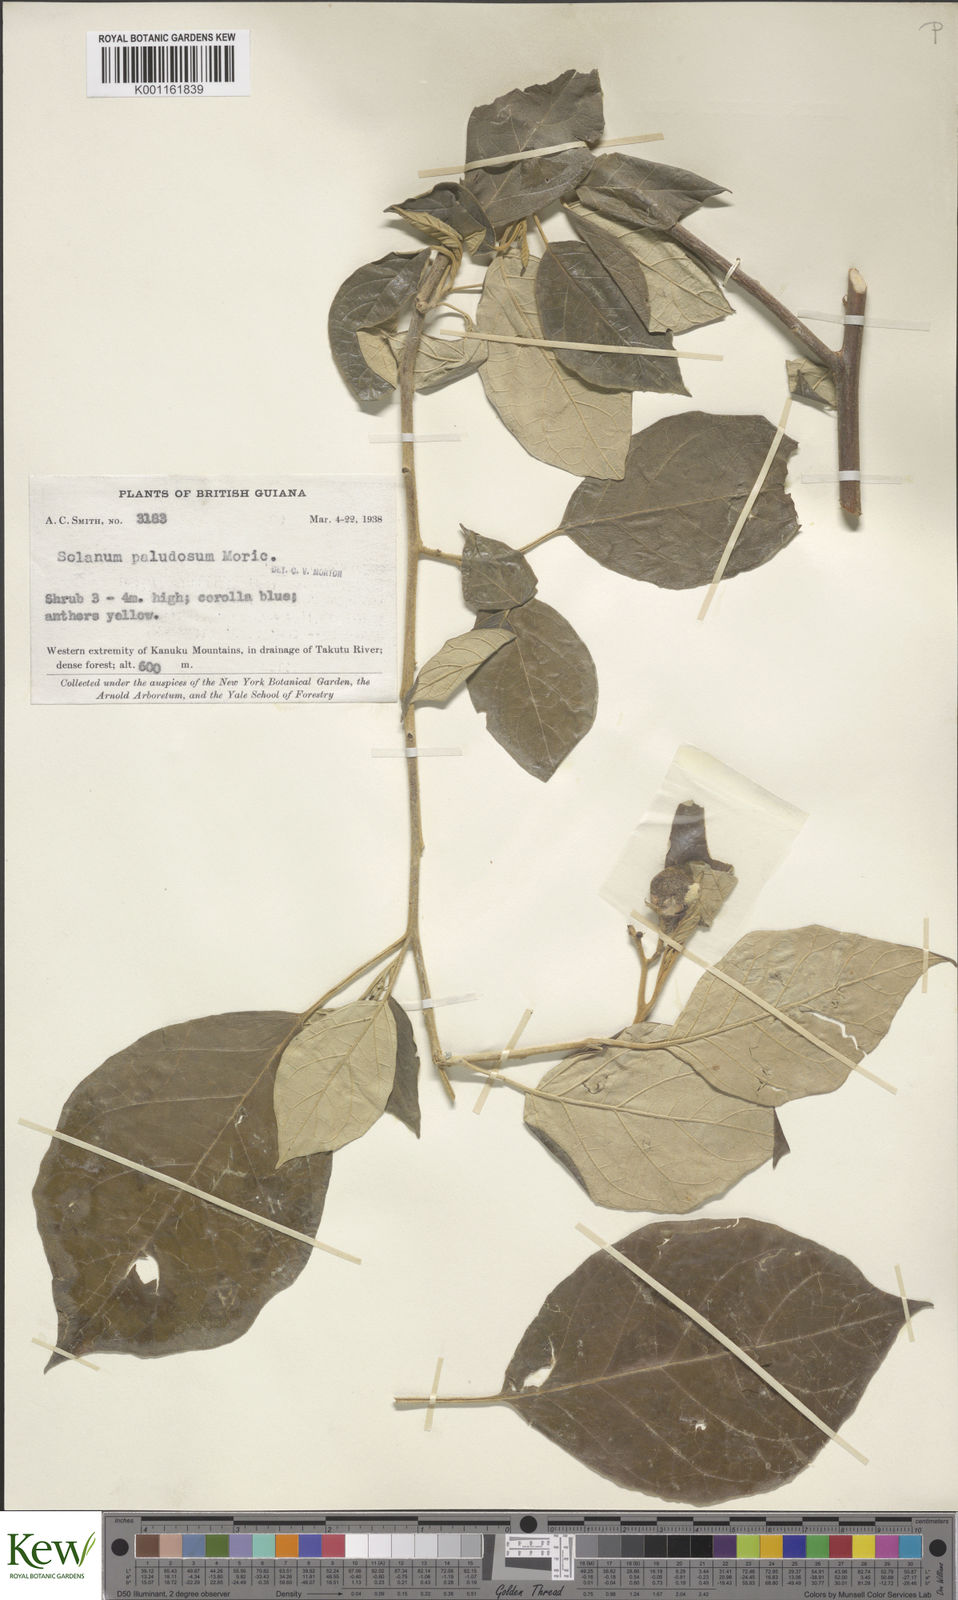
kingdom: Plantae
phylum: Tracheophyta
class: Magnoliopsida
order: Solanales
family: Solanaceae
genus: Solanum
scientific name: Solanum paludosum
